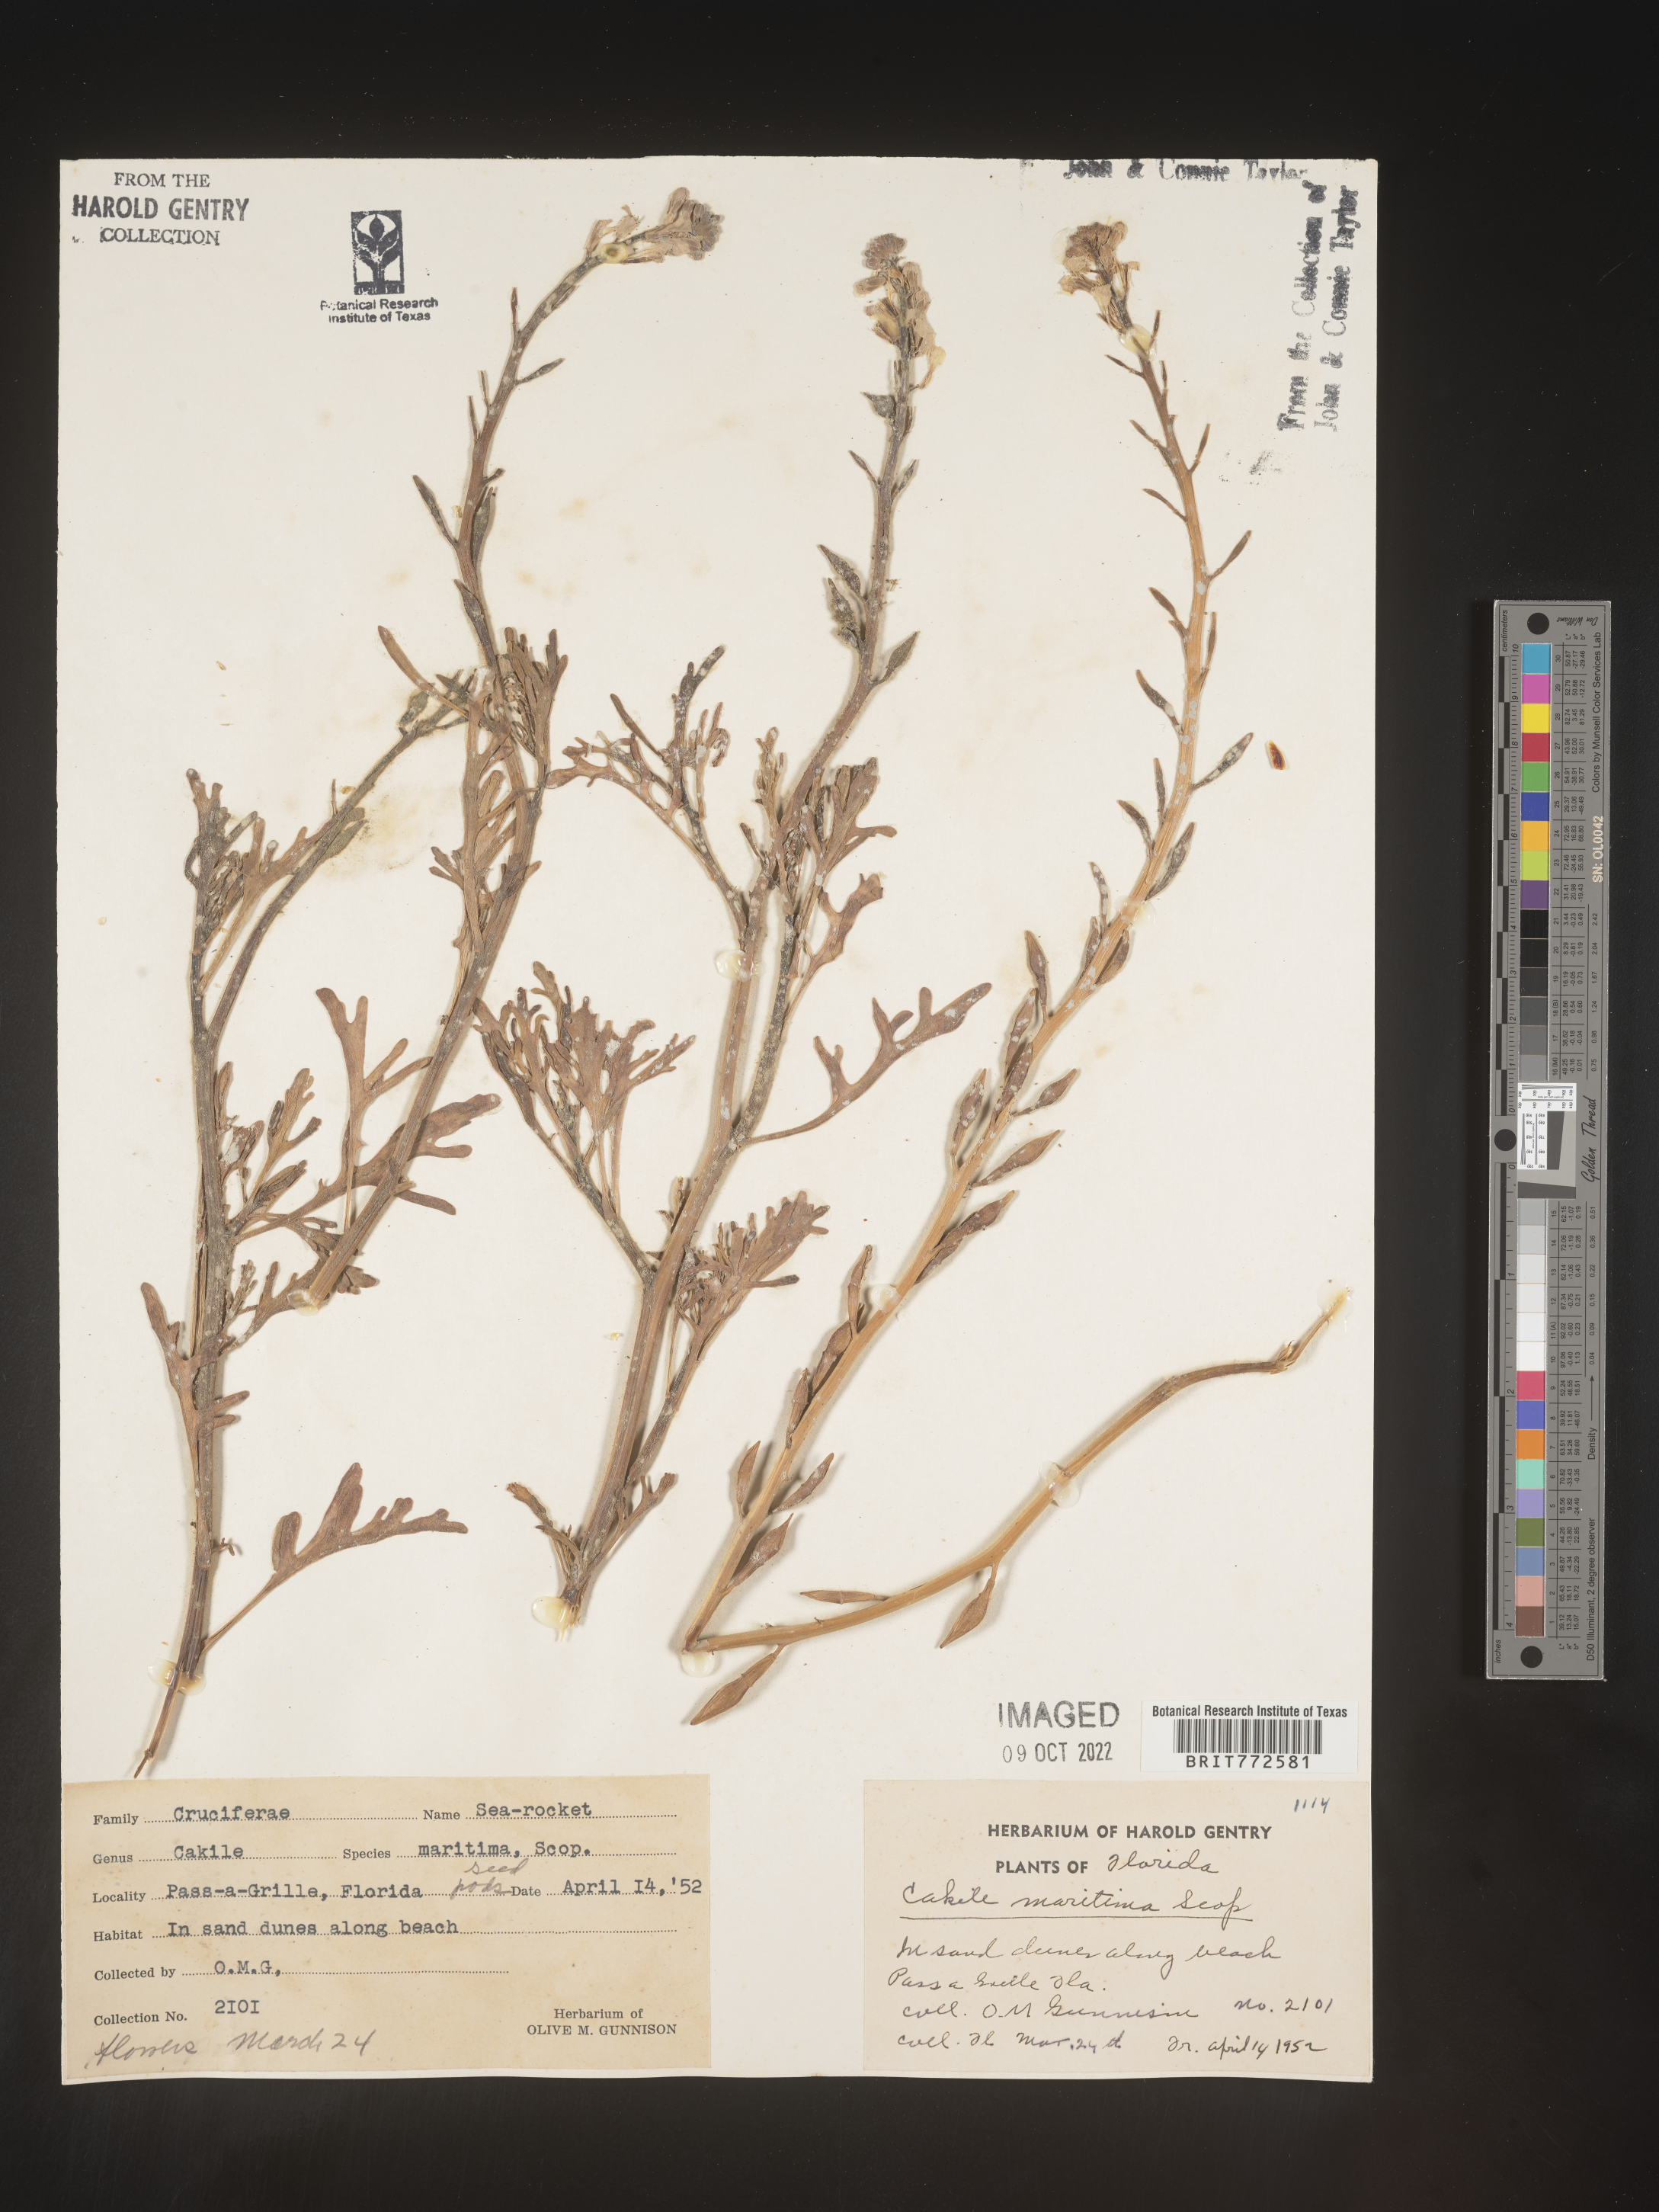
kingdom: Plantae
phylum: Tracheophyta
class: Magnoliopsida
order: Brassicales
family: Brassicaceae
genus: Cakile
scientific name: Cakile maritima
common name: Sea rocket
